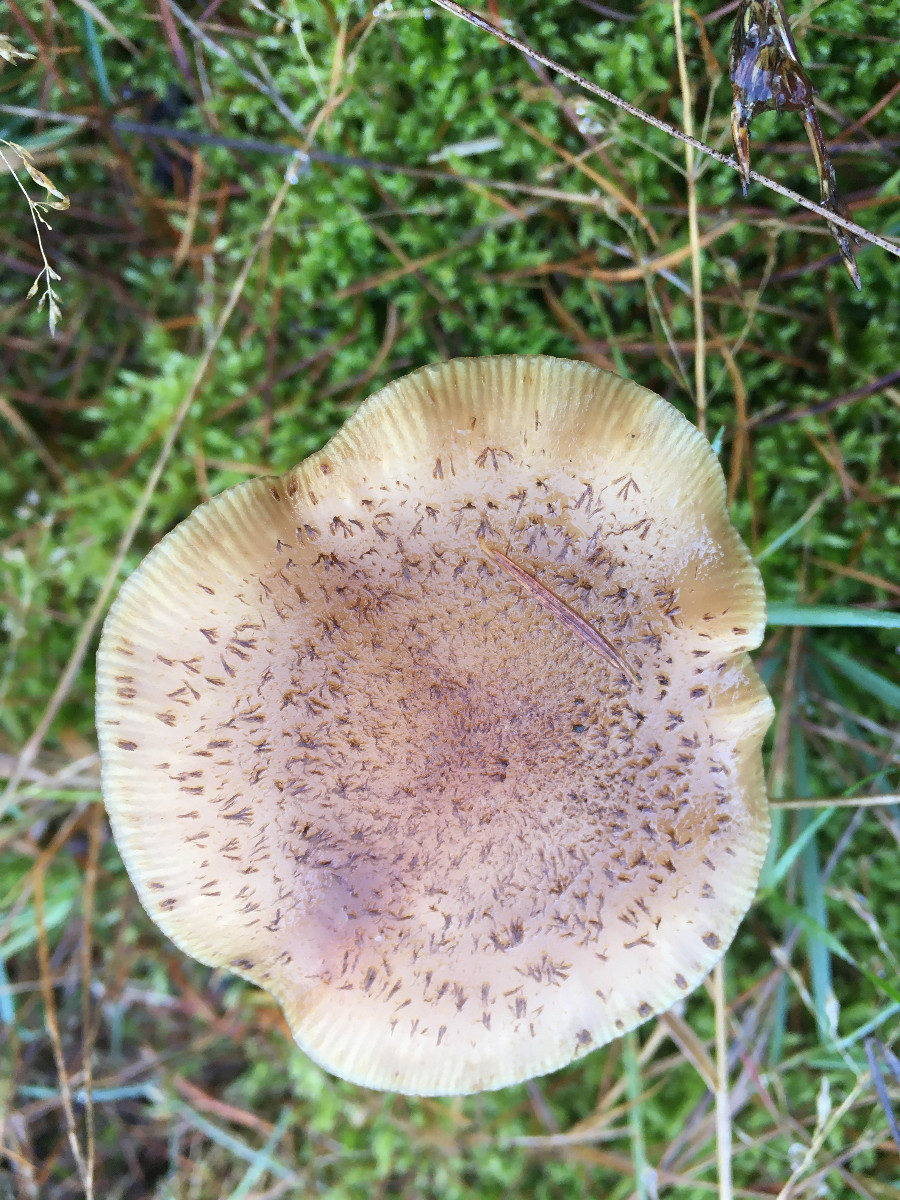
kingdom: Fungi
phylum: Basidiomycota
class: Agaricomycetes
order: Agaricales
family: Physalacriaceae
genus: Armillaria
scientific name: Armillaria ostoyae
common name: mørk honningsvamp
